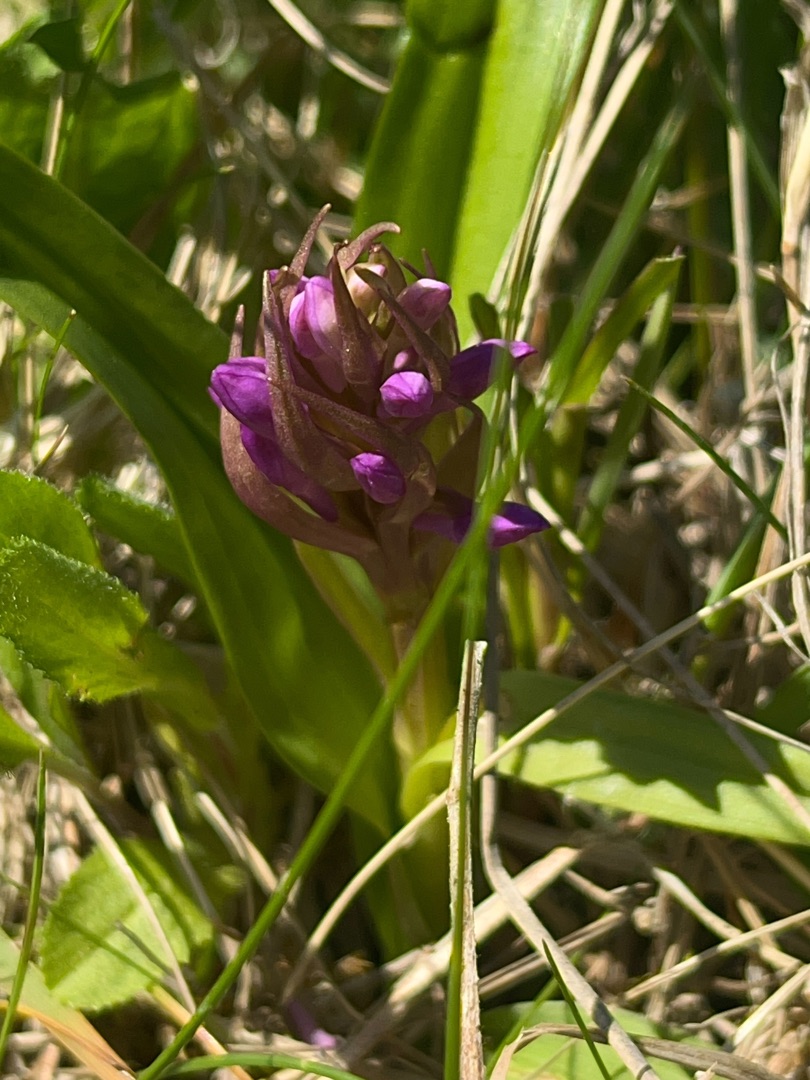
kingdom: Plantae
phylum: Tracheophyta
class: Liliopsida
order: Asparagales
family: Orchidaceae
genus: Dactylorhiza
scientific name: Dactylorhiza majalis
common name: Maj-gøgeurt
